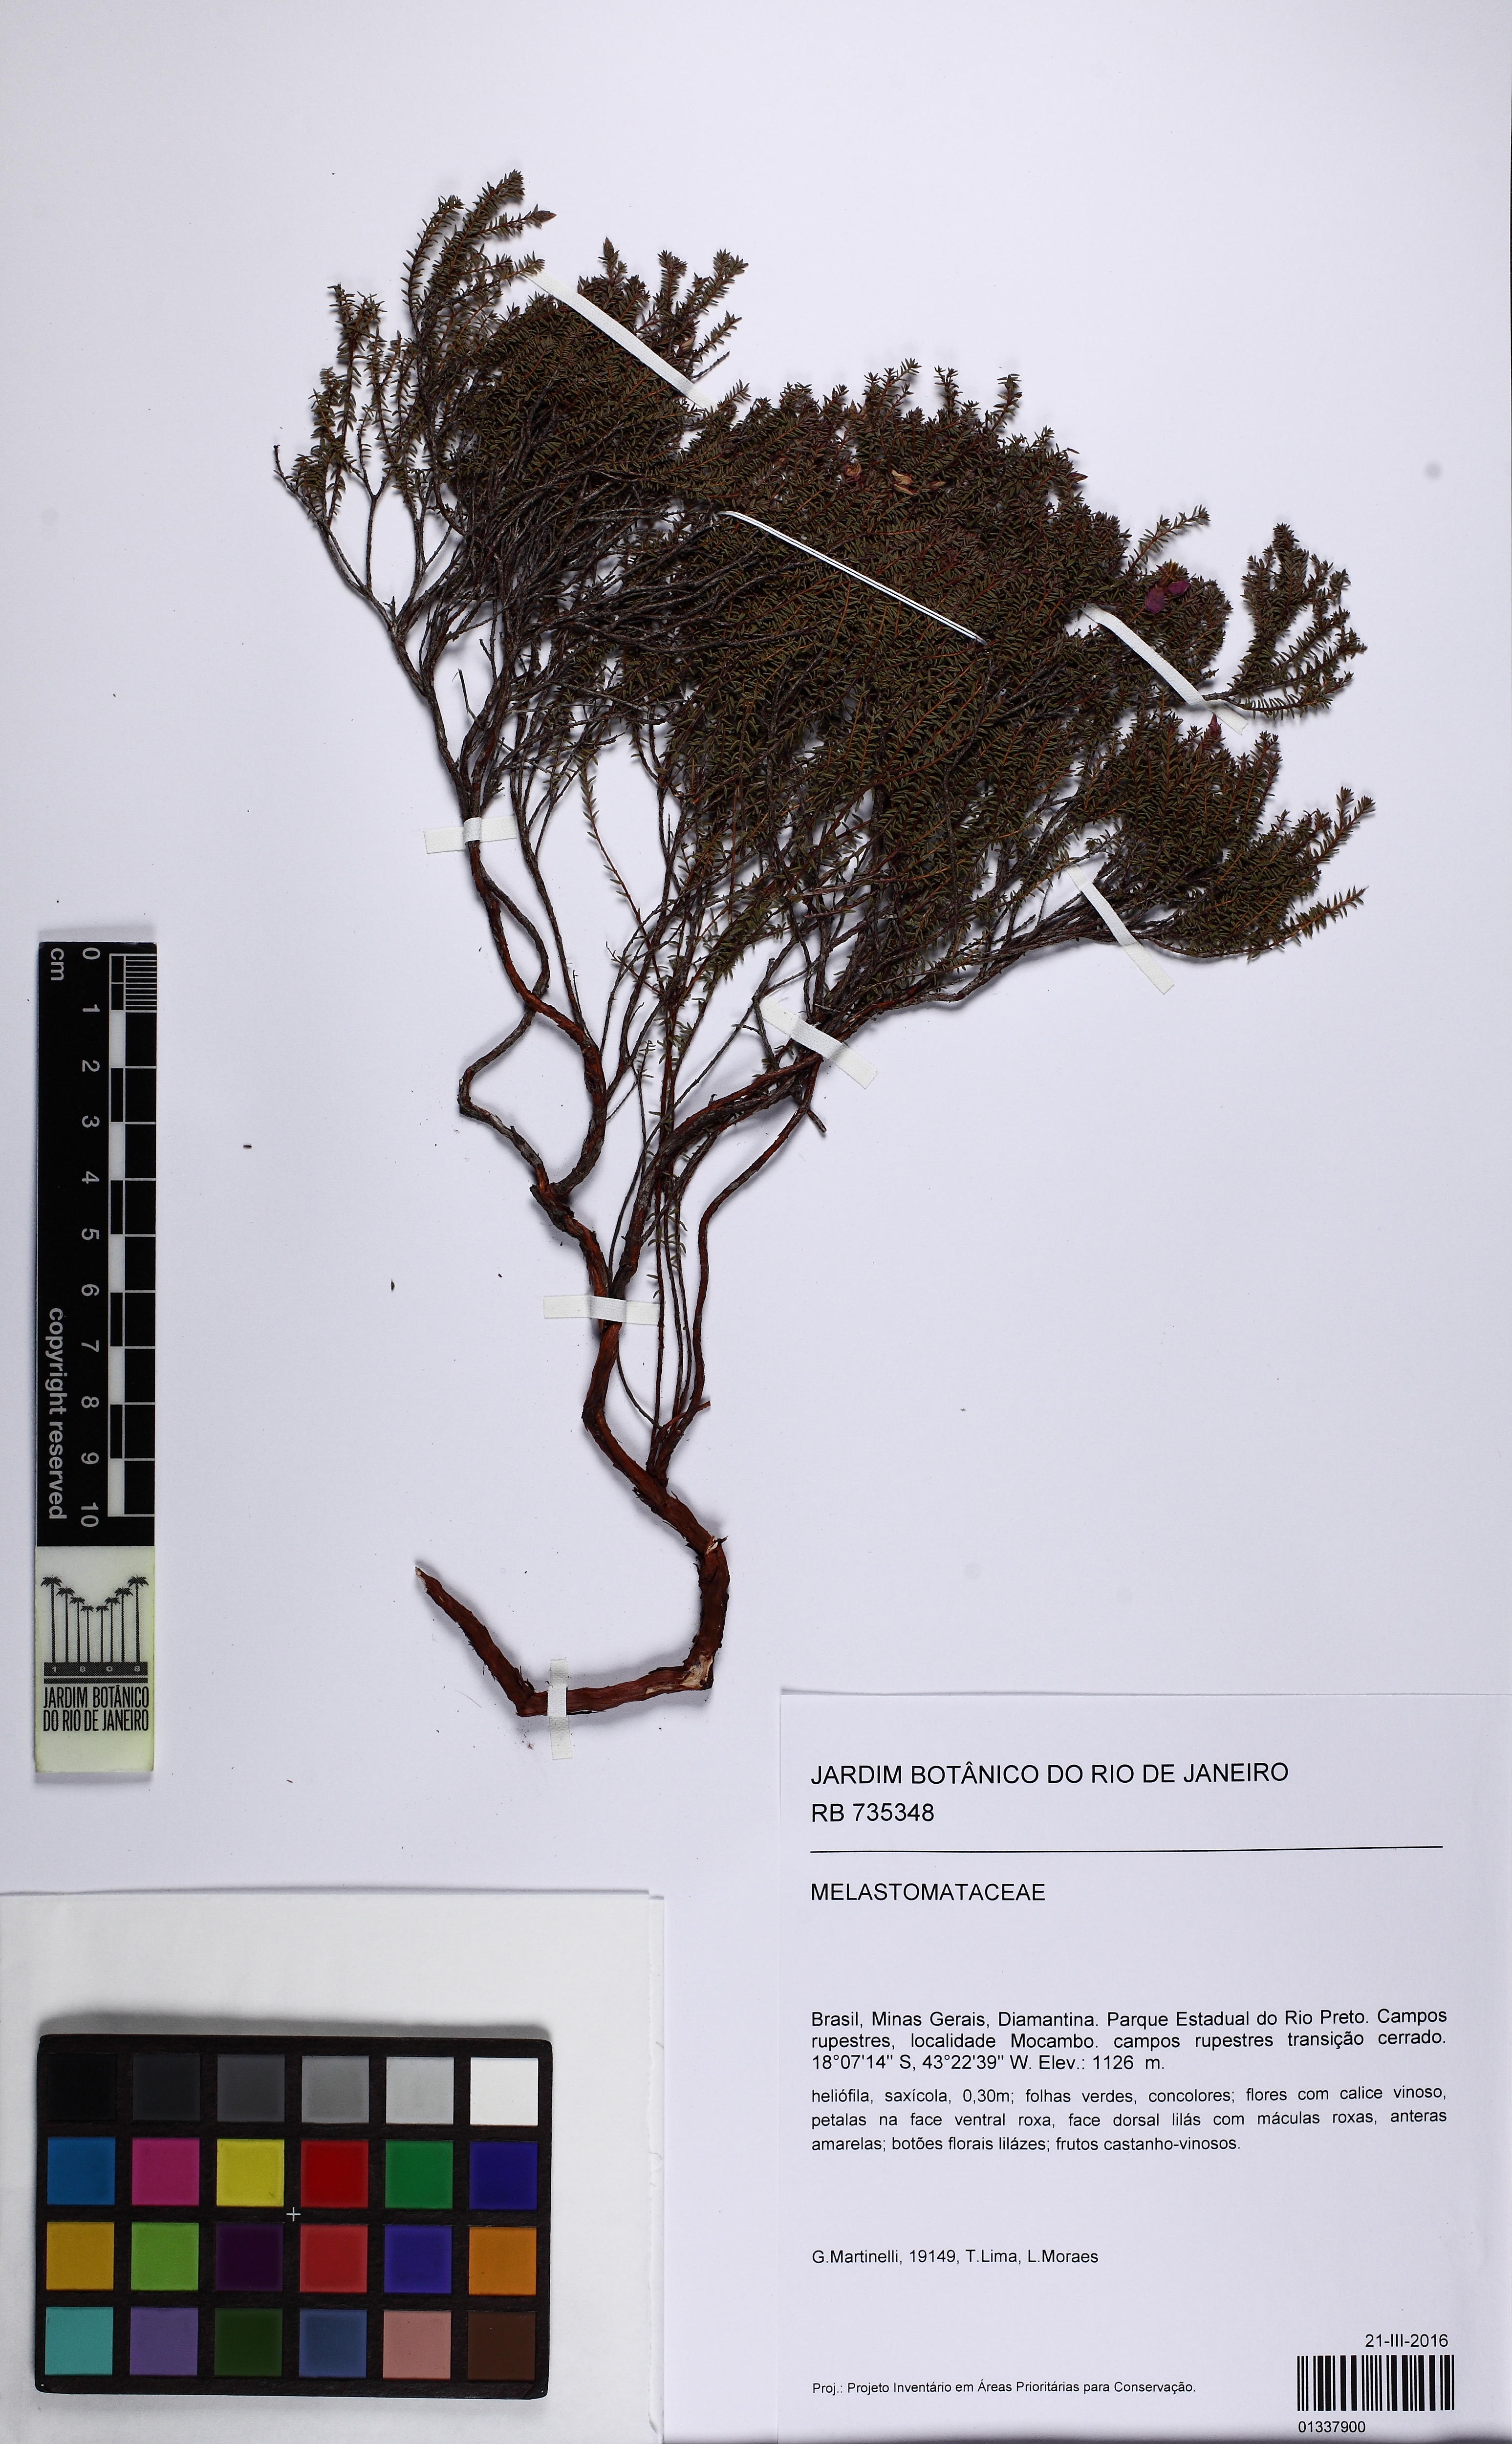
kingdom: Plantae
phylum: Tracheophyta
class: Magnoliopsida
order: Myrtales
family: Melastomataceae
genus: Marcetia
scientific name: Marcetia acerosa
